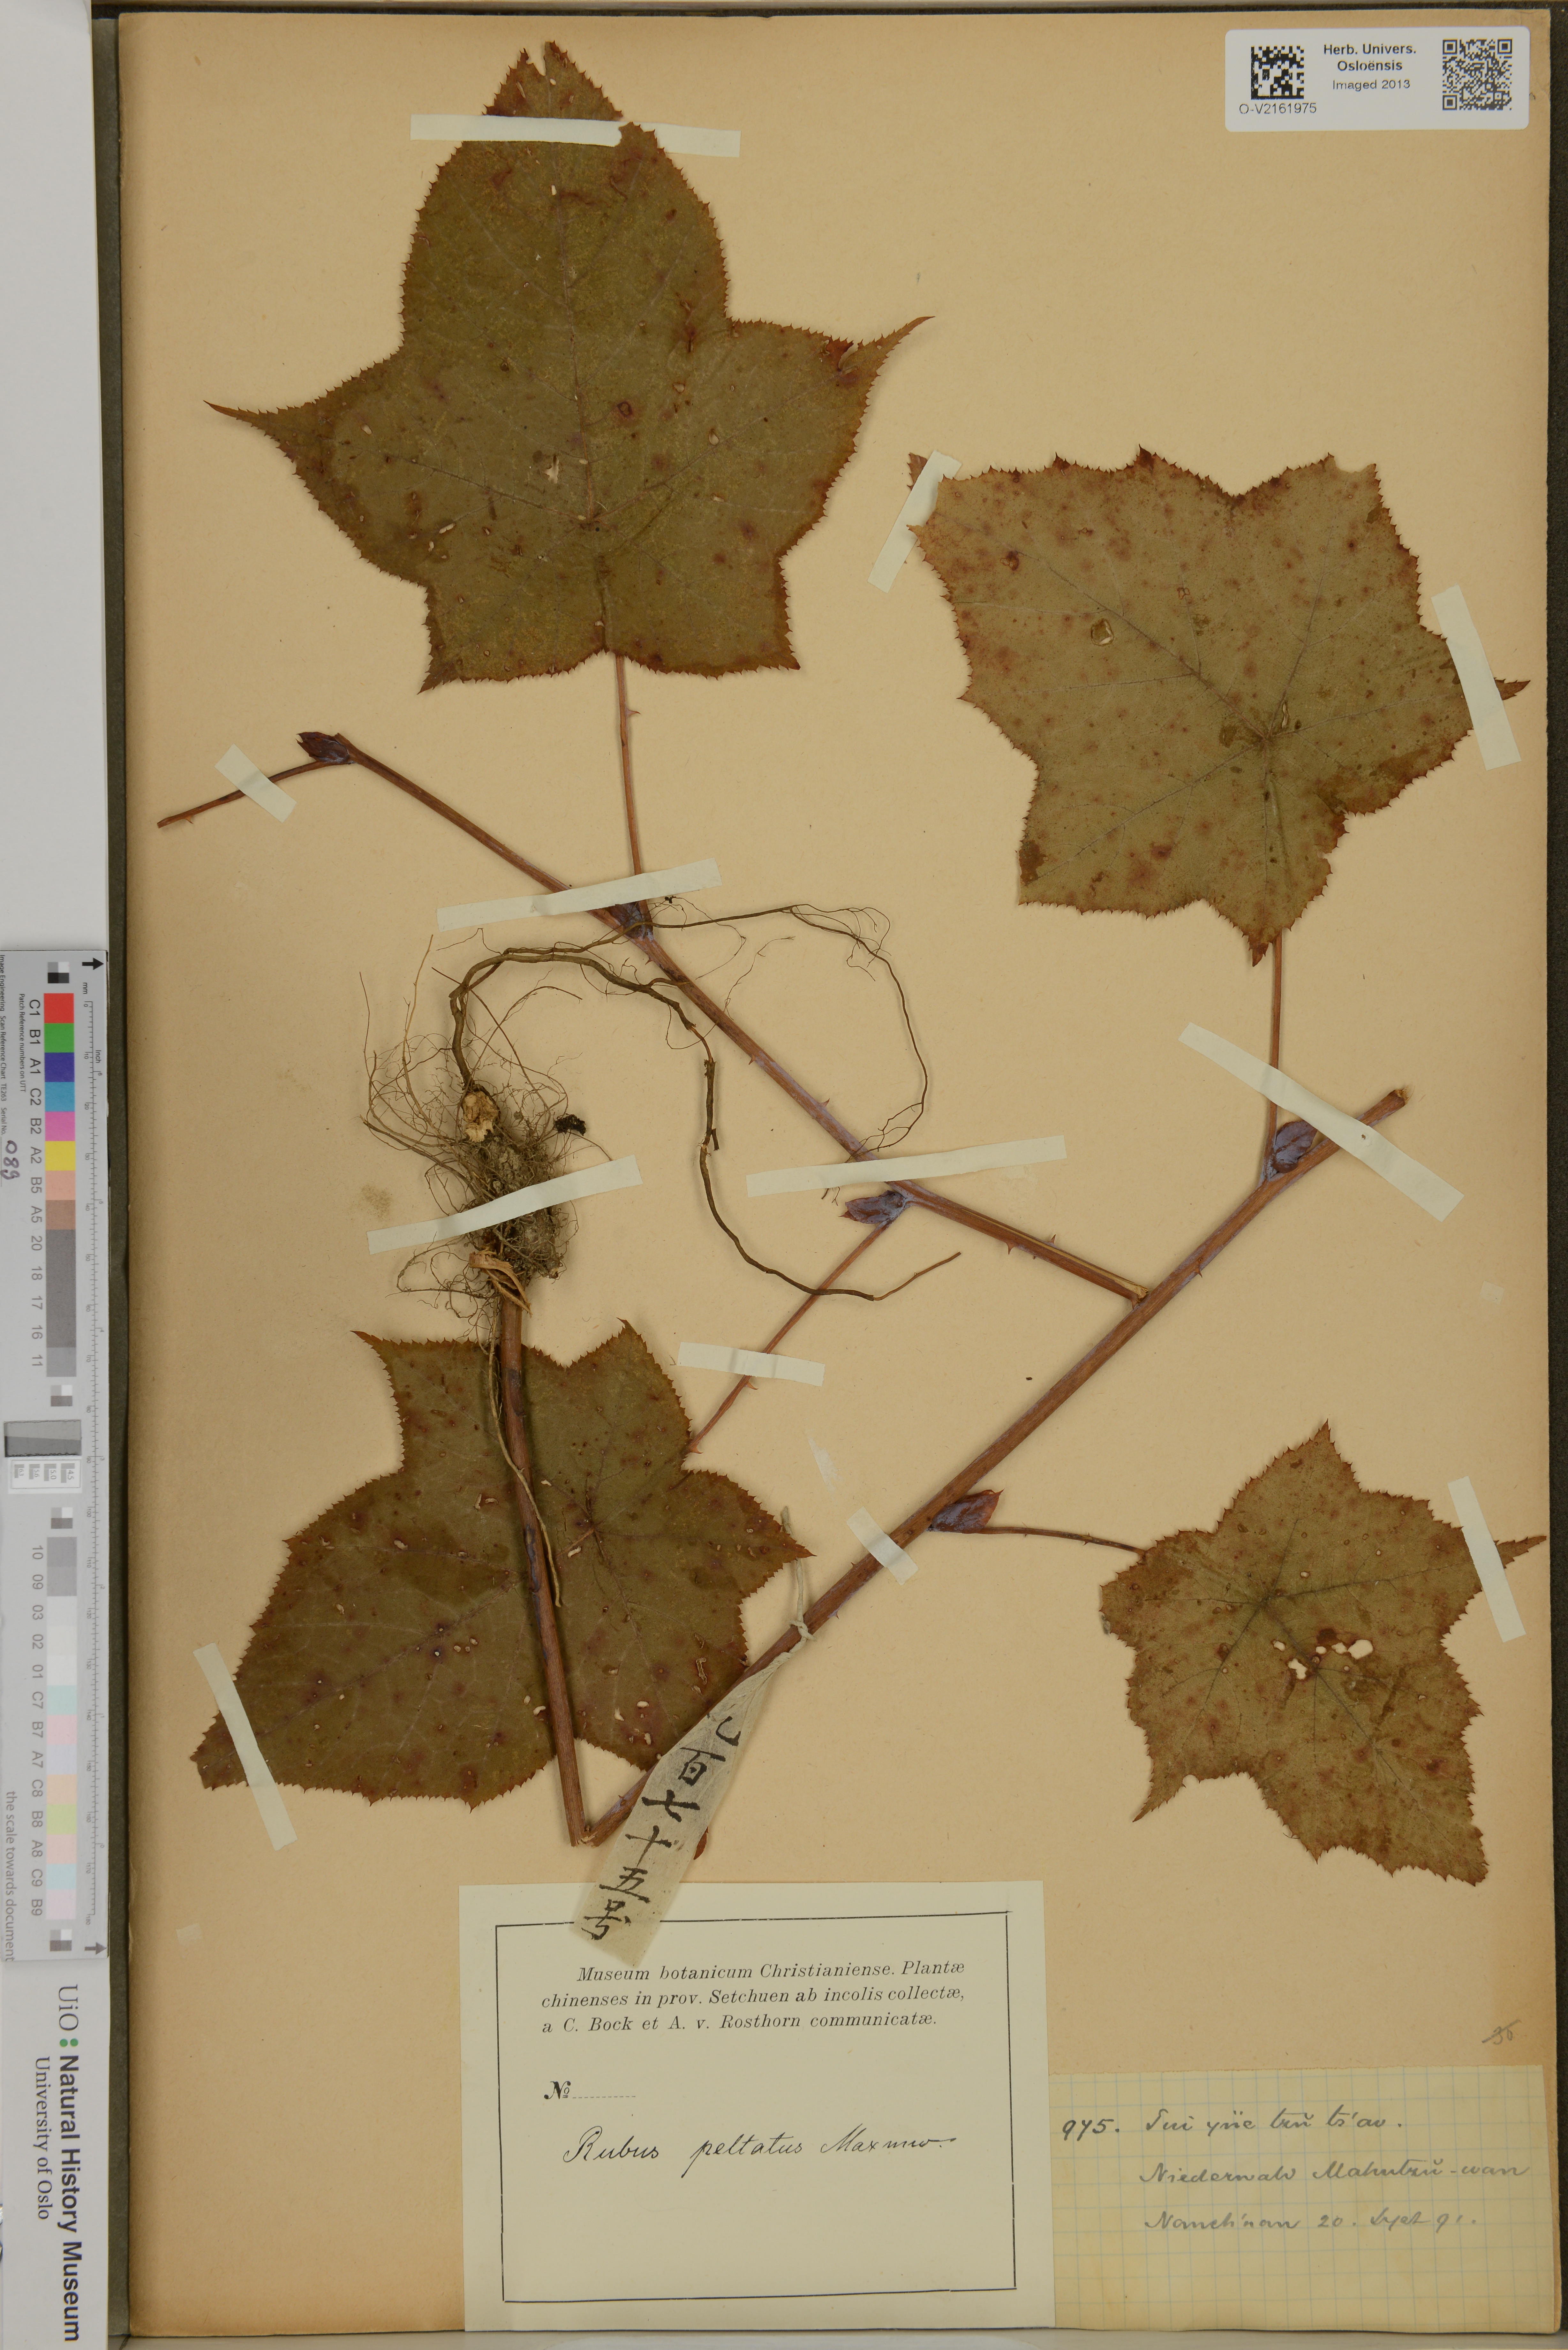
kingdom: Plantae
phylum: Tracheophyta
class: Magnoliopsida
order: Rosales
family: Rosaceae
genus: Rubus
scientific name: Rubus peltatus
